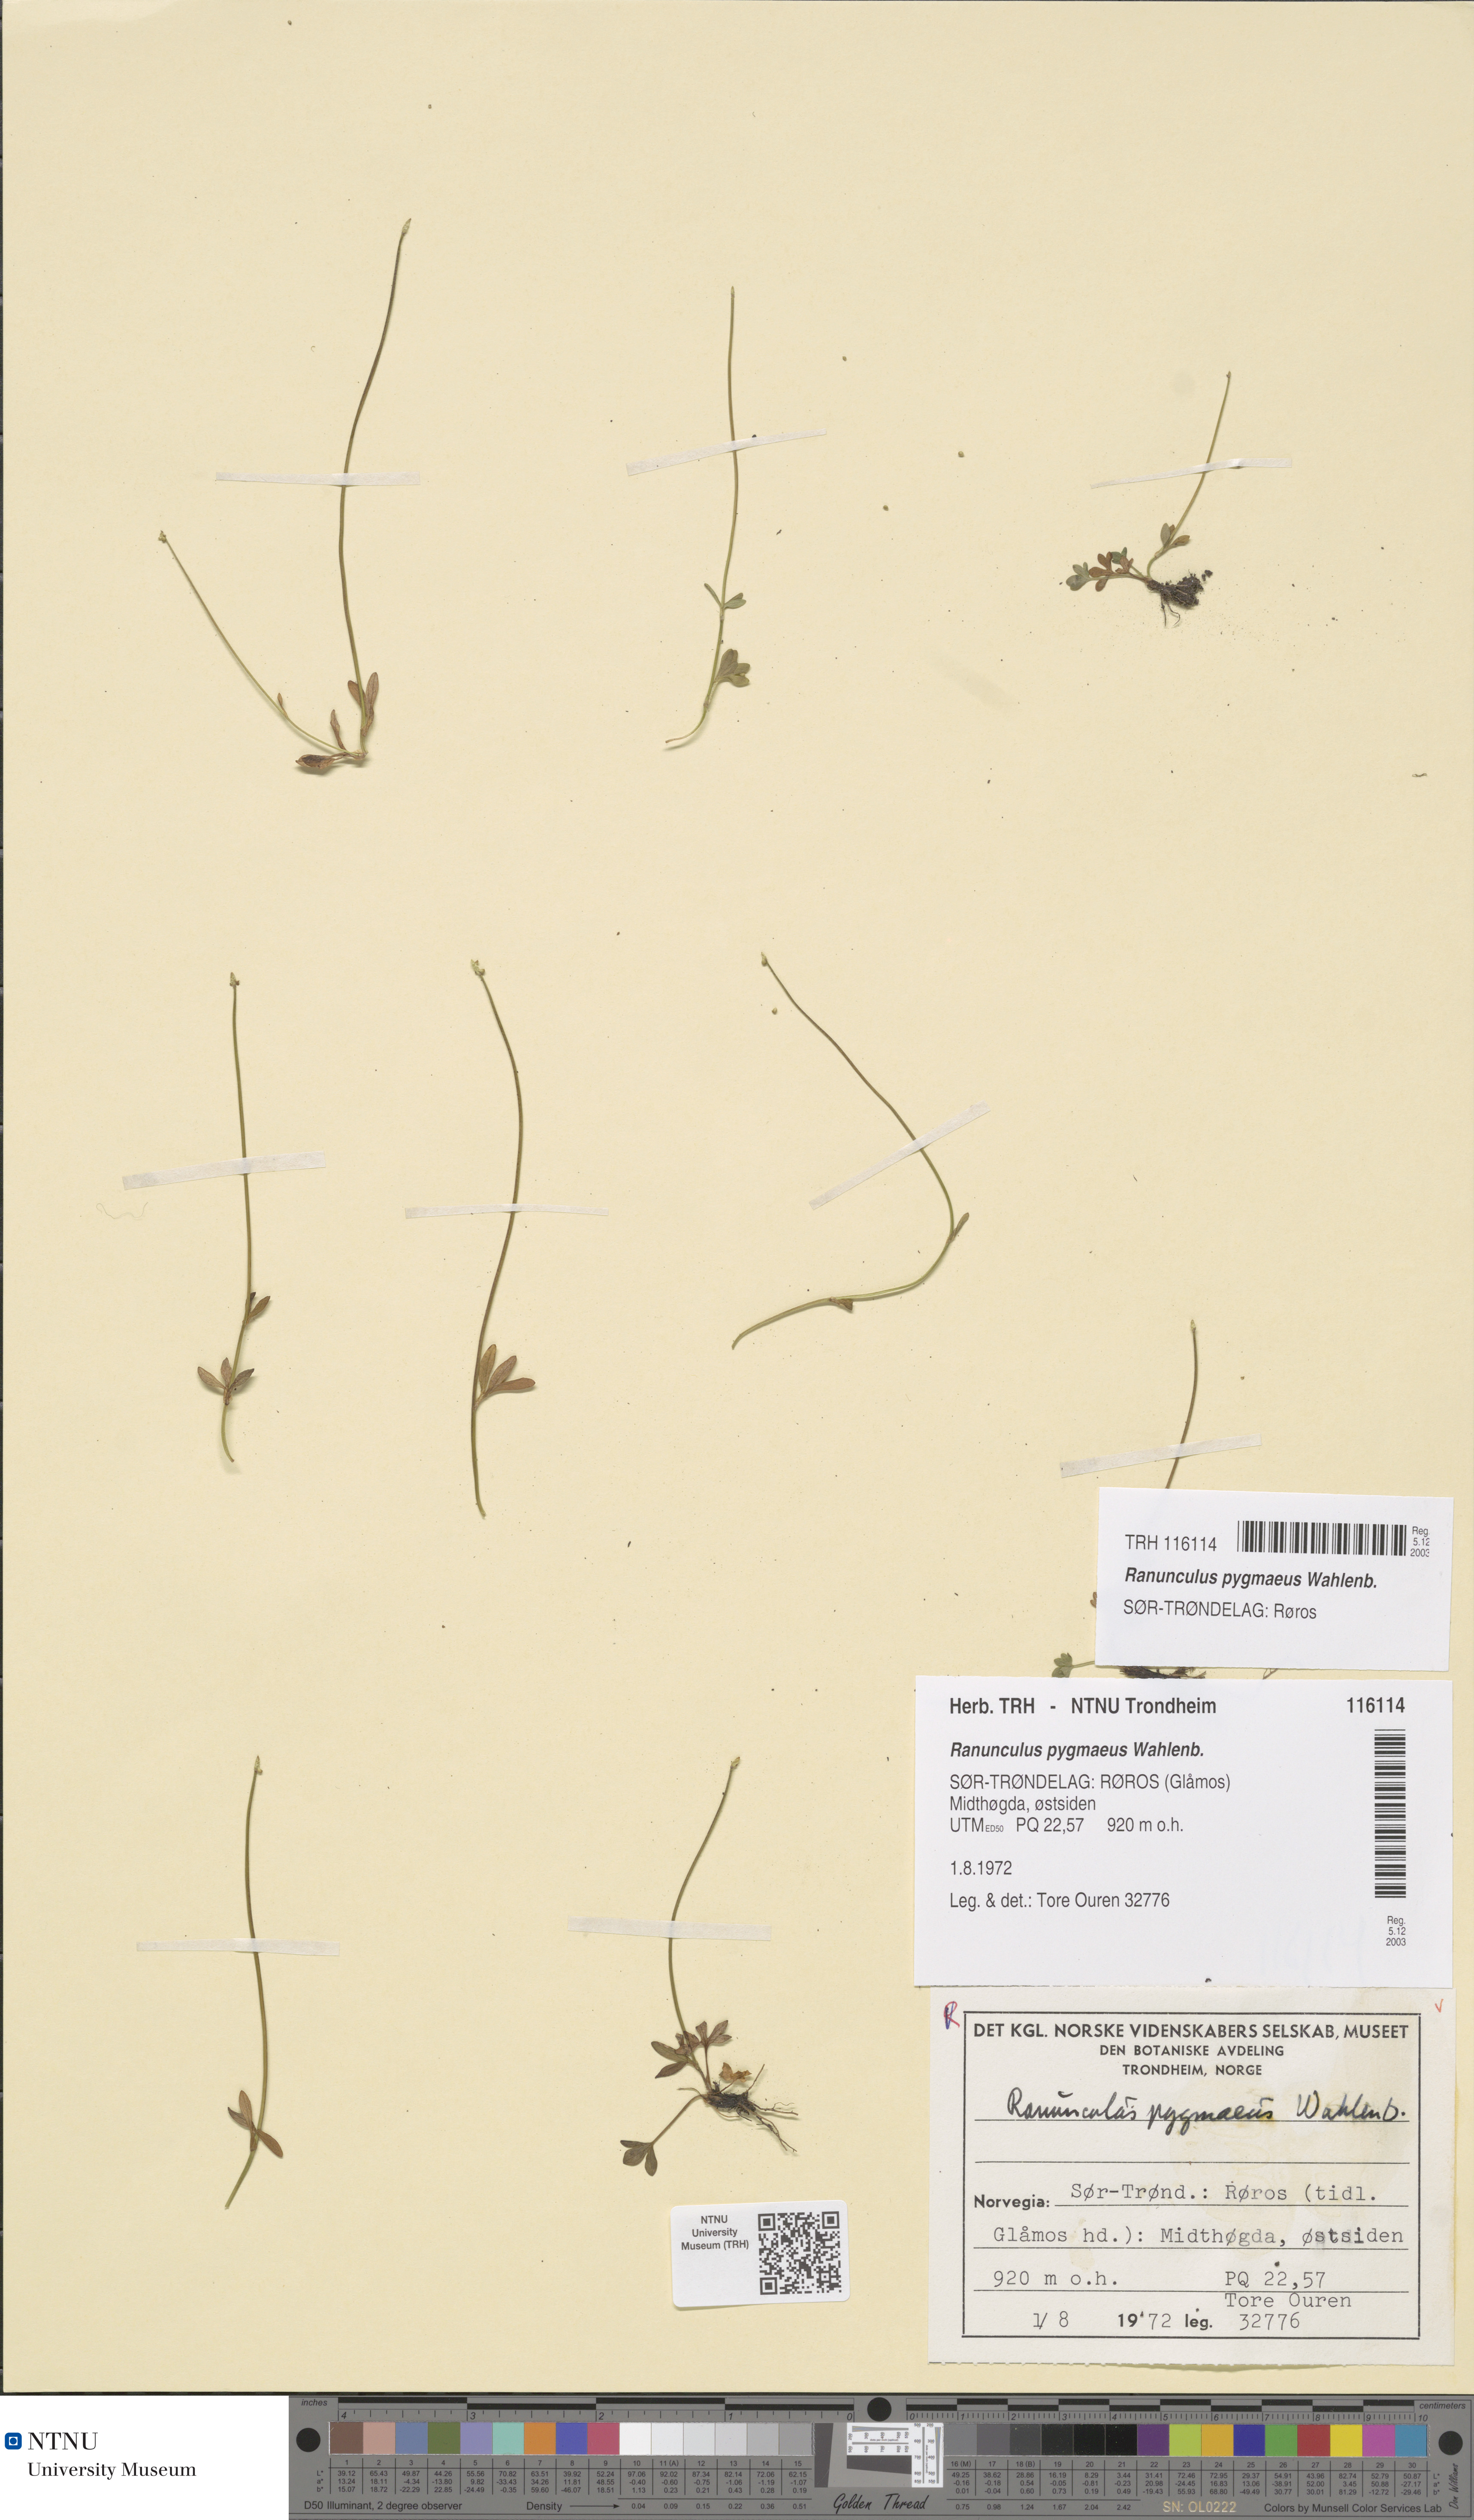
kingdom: Plantae
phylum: Tracheophyta
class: Magnoliopsida
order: Ranunculales
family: Ranunculaceae
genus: Ranunculus
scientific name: Ranunculus pygmaeus
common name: Dwarf buttercup
